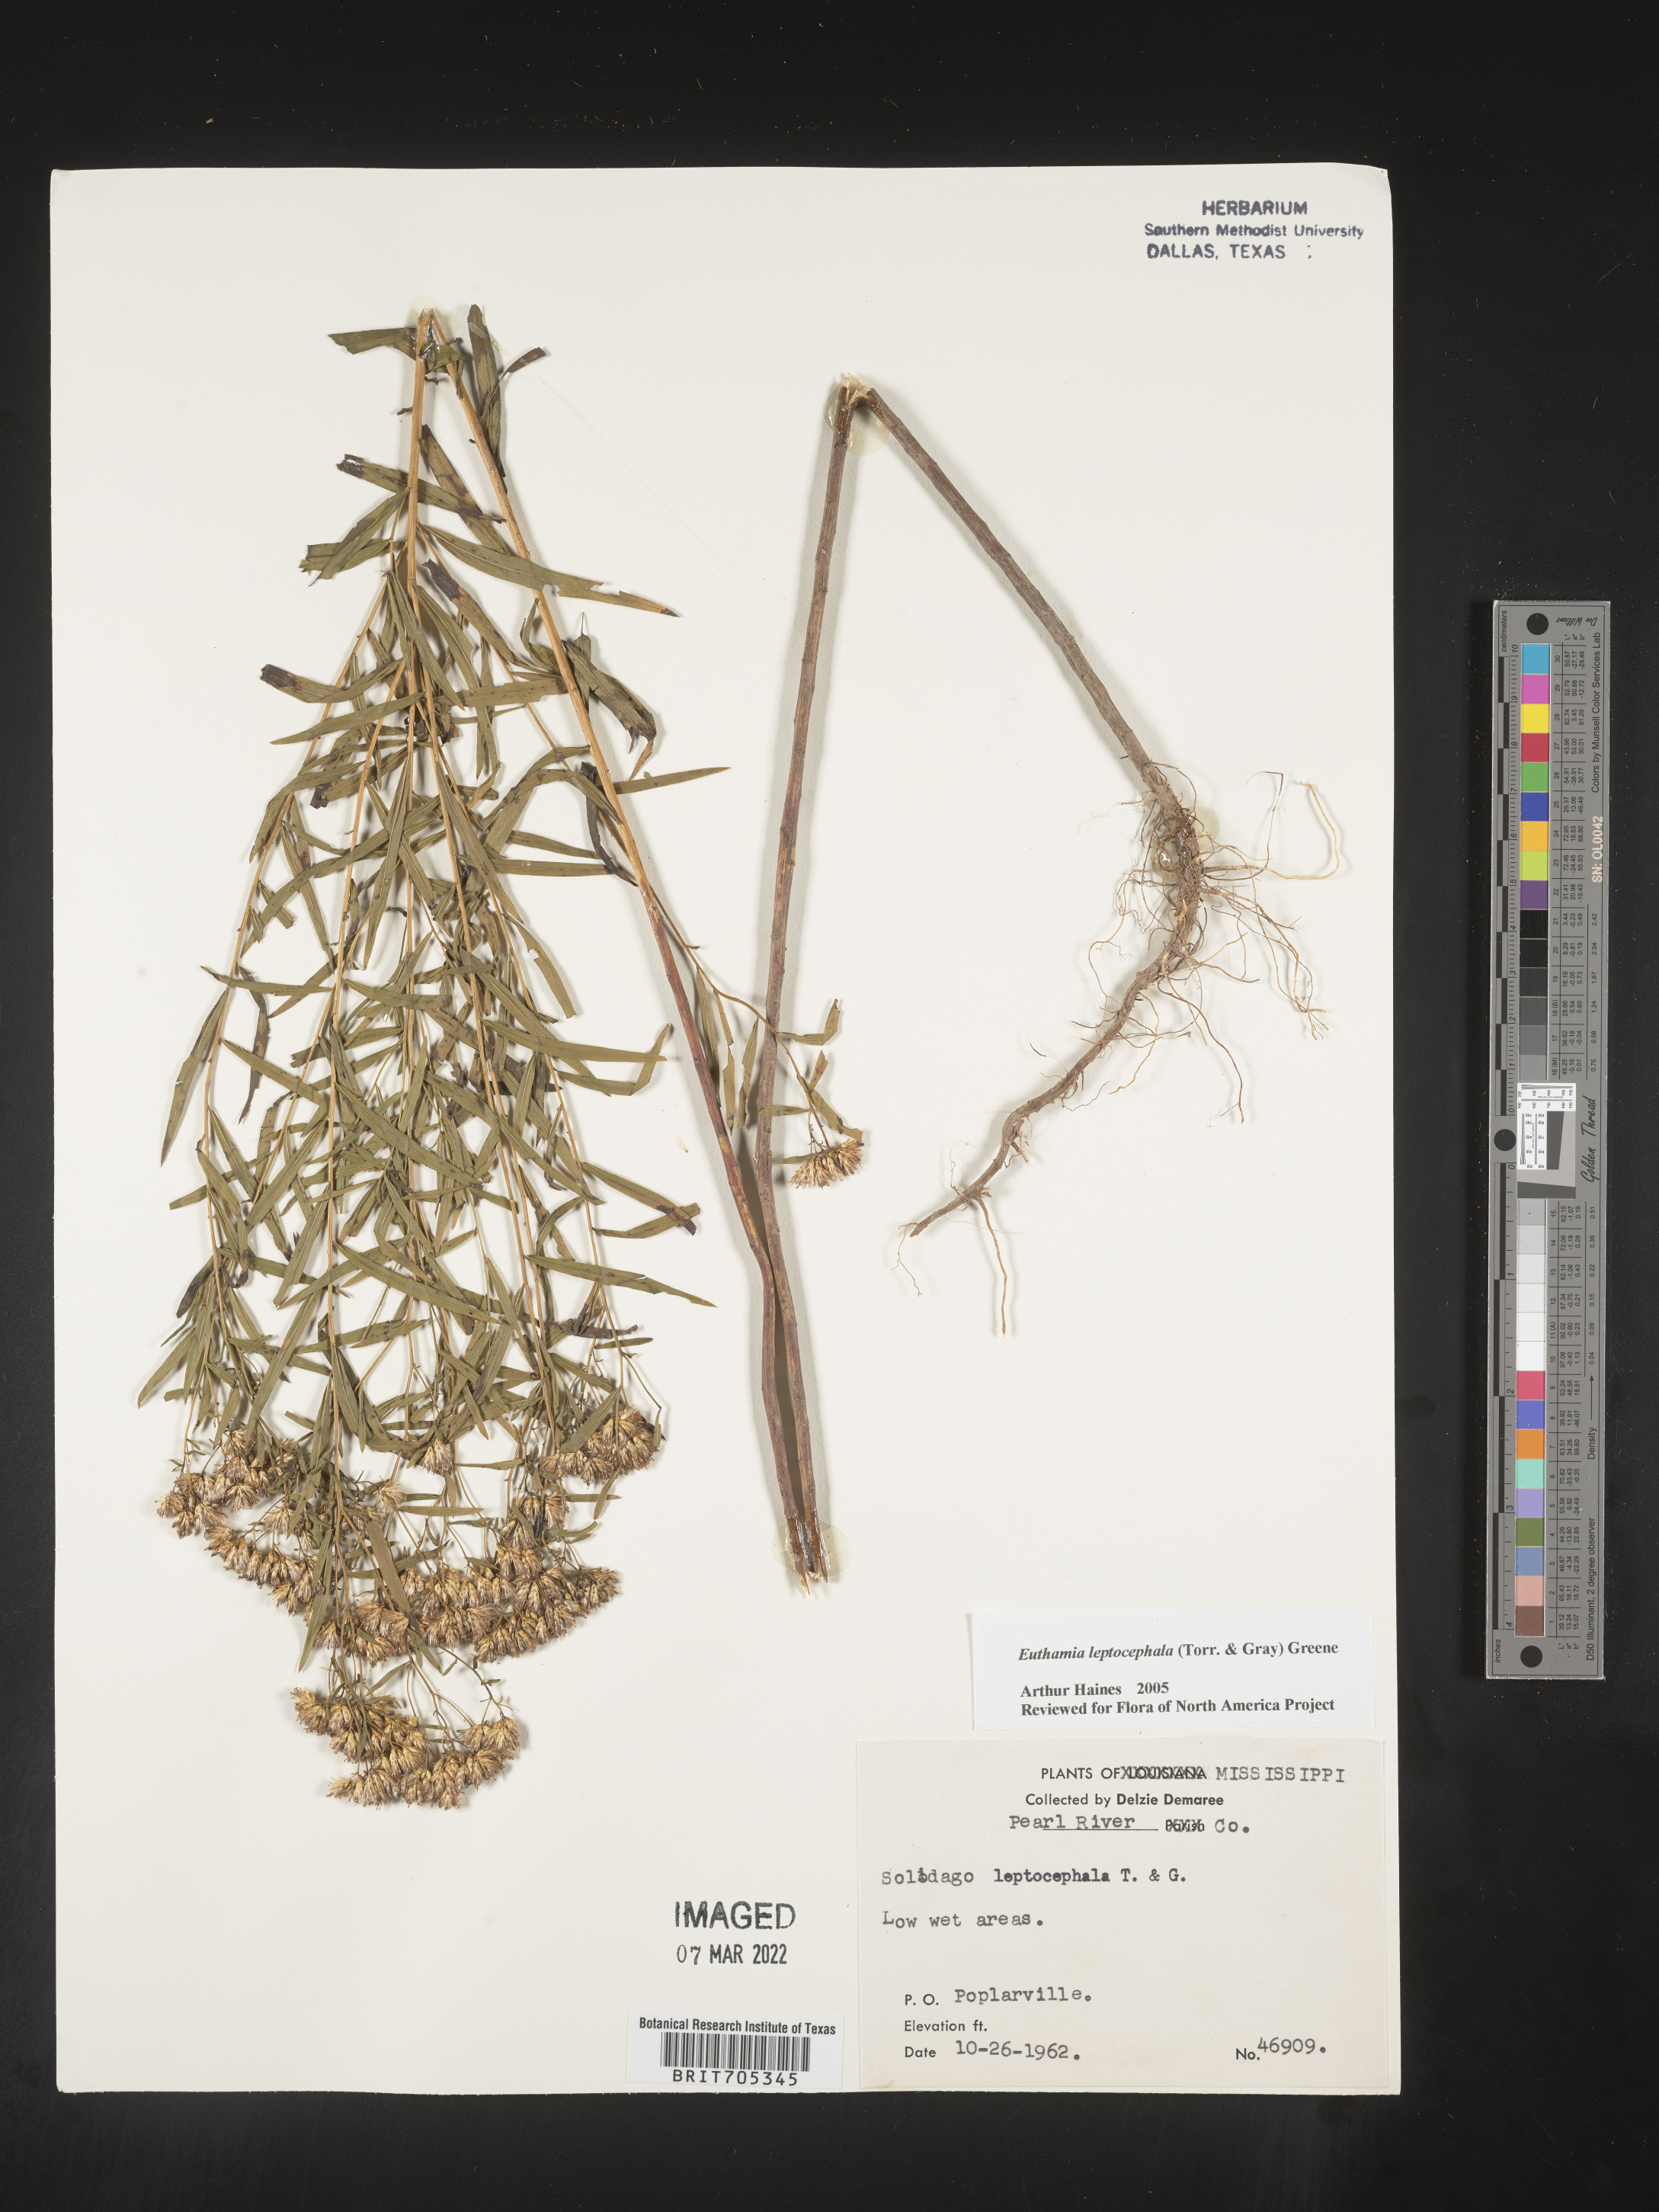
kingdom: Plantae
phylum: Tracheophyta
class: Magnoliopsida
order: Asterales
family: Asteraceae
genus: Euthamia
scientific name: Euthamia leptocephala
